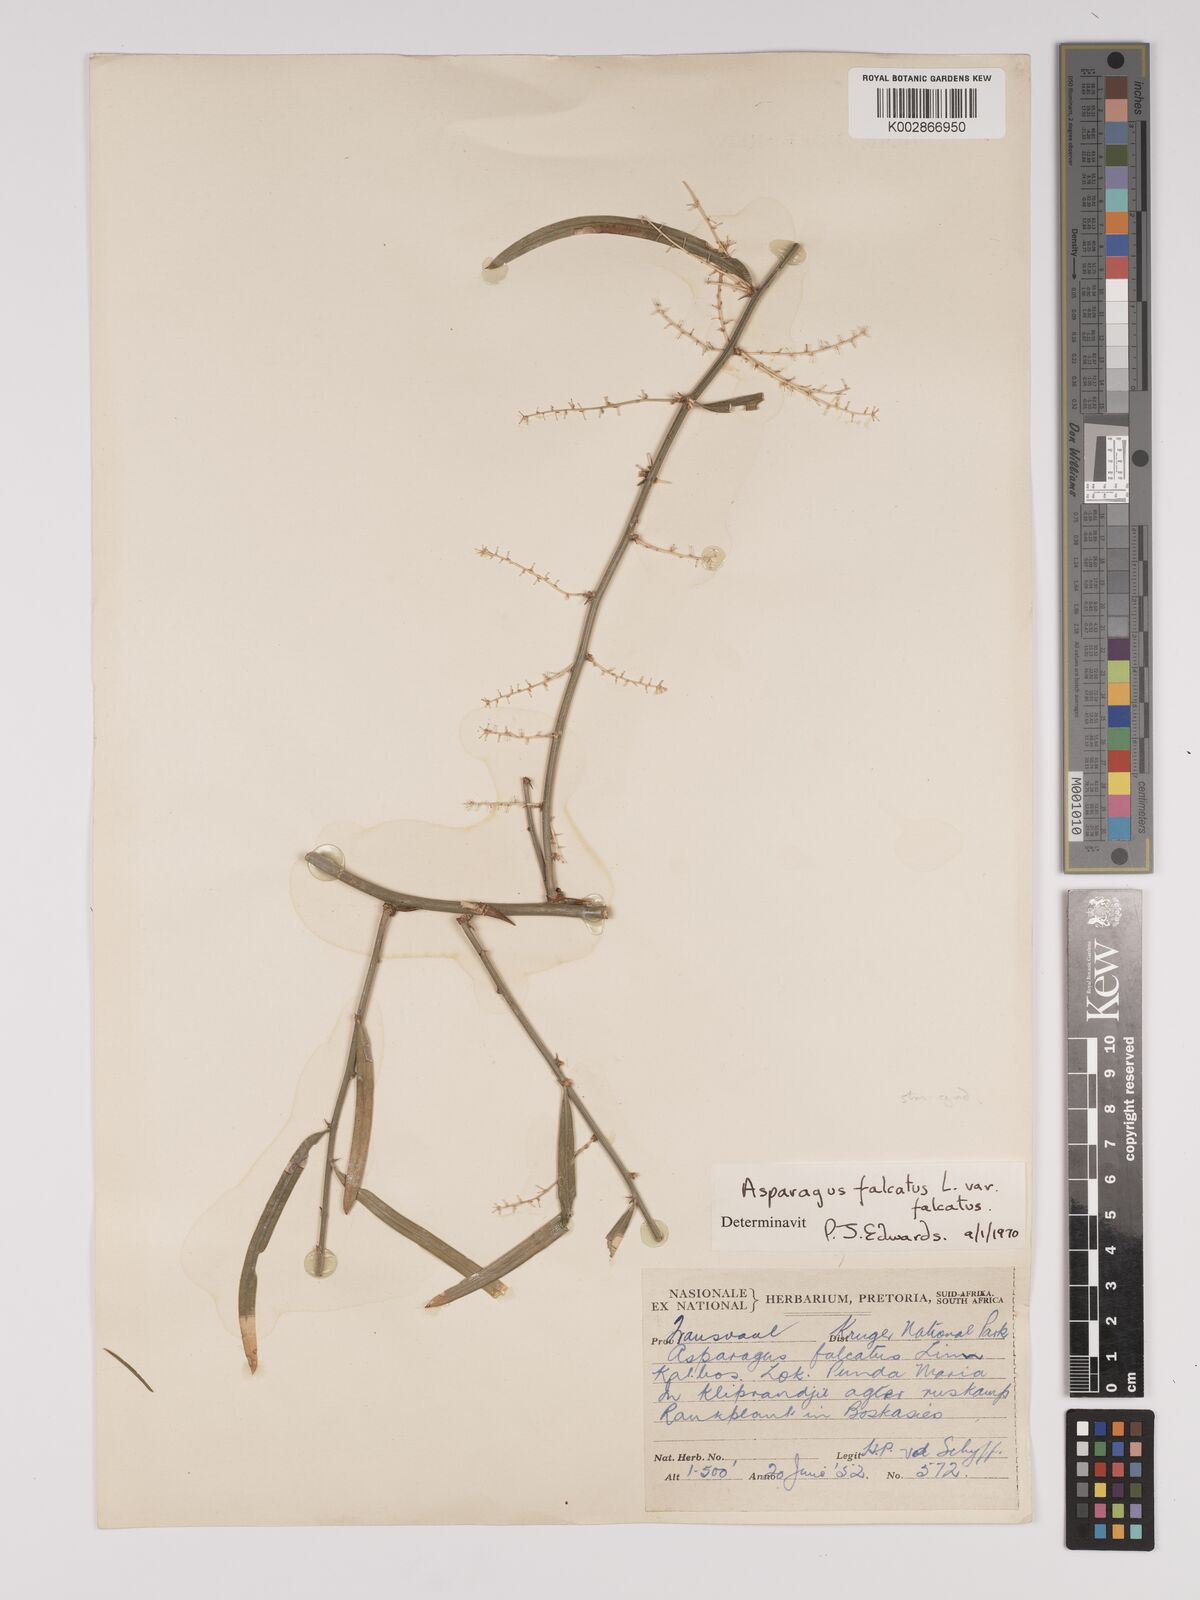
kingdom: Plantae
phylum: Tracheophyta
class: Liliopsida
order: Asparagales
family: Asparagaceae
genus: Asparagus
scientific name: Asparagus falcatus
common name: Asparagus
